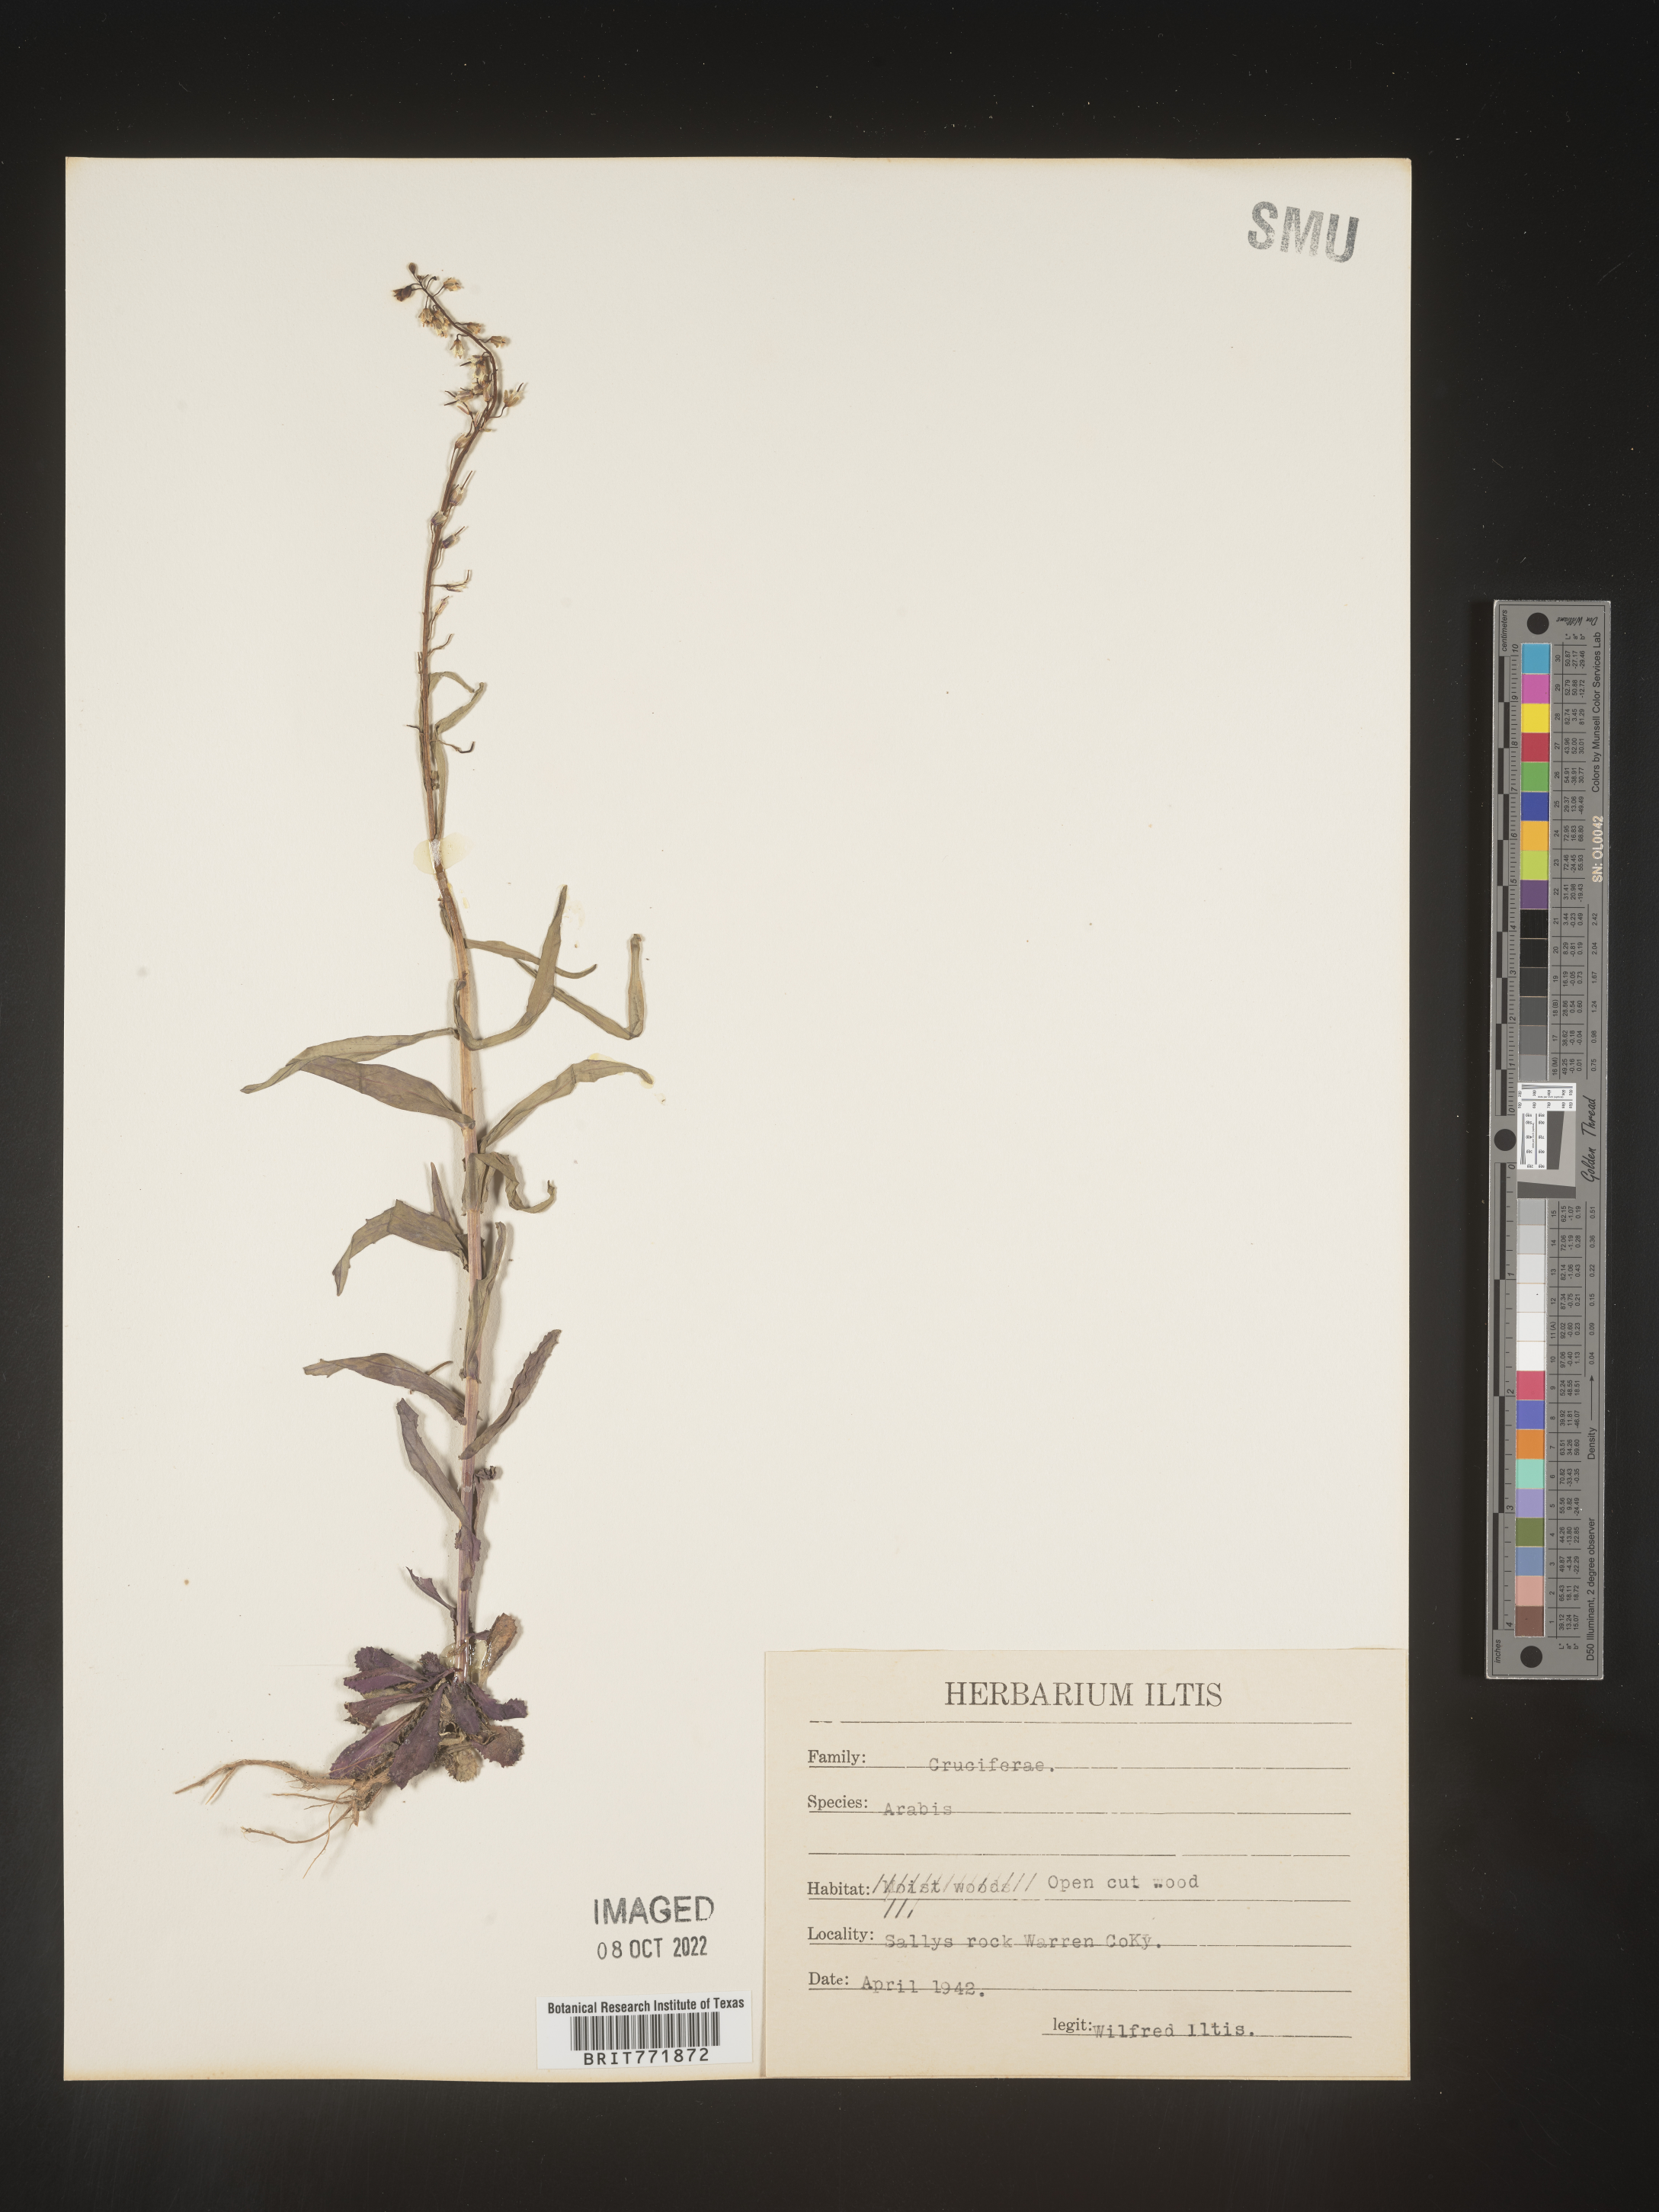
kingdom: Plantae
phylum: Tracheophyta
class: Magnoliopsida
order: Brassicales
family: Brassicaceae
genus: Arabis
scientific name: Arabis
